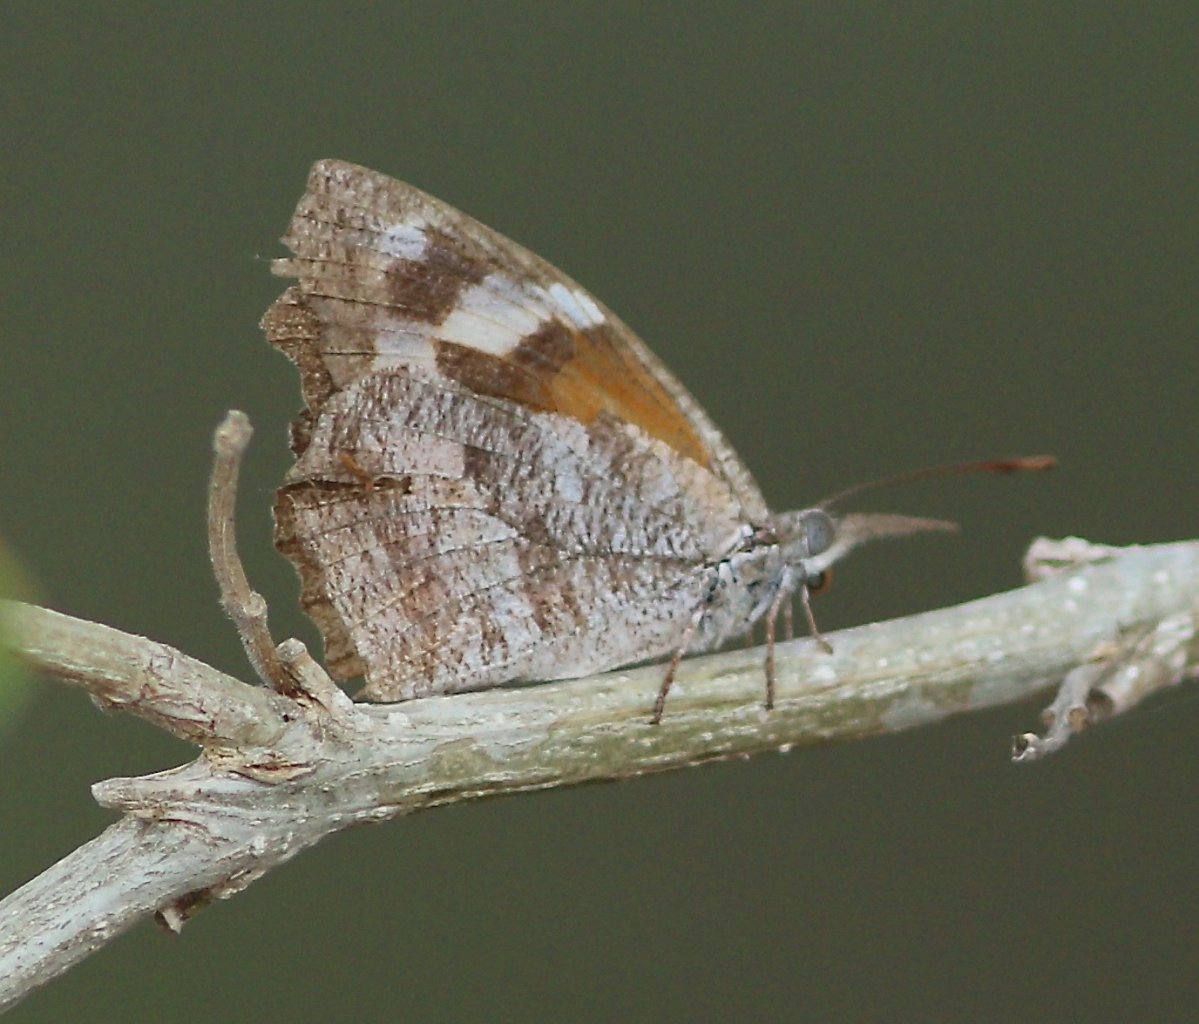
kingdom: Animalia
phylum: Arthropoda
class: Insecta
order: Lepidoptera
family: Nymphalidae
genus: Libytheana
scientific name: Libytheana carinenta
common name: American Snout
